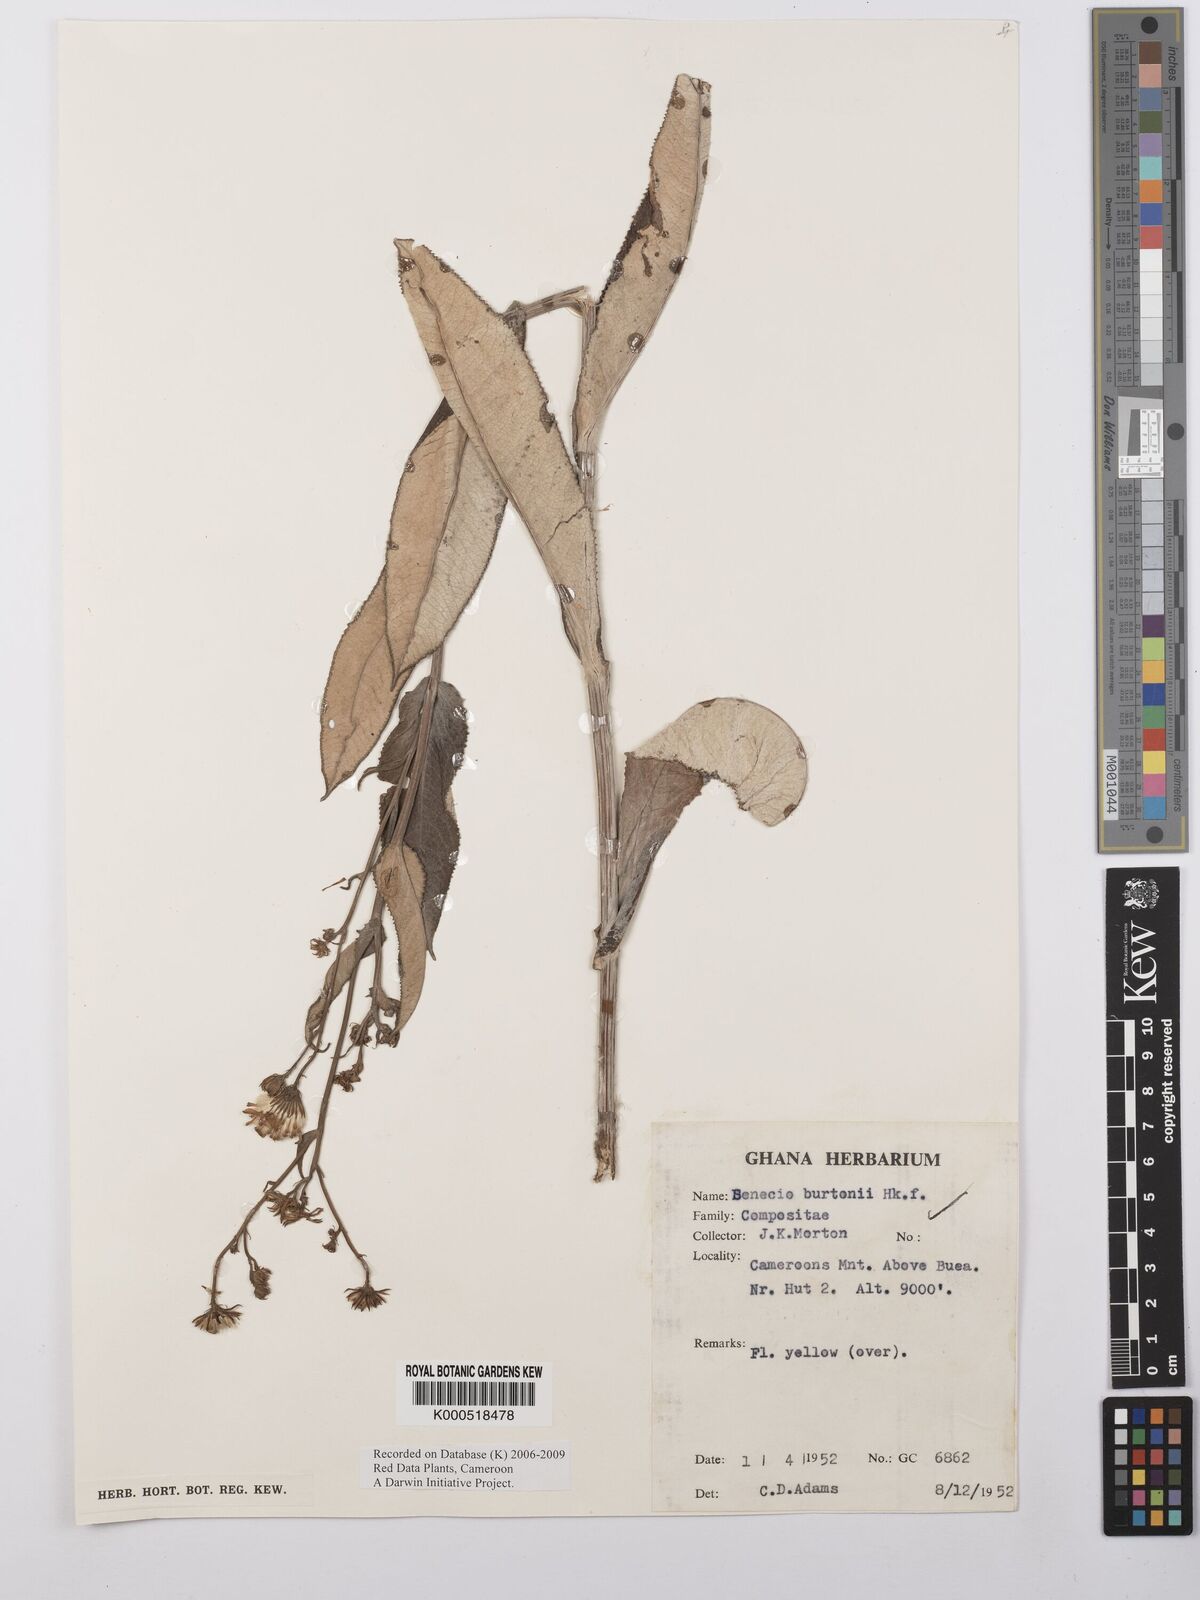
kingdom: Plantae
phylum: Tracheophyta
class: Magnoliopsida
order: Asterales
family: Asteraceae
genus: Senecio
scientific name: Senecio burtonii
